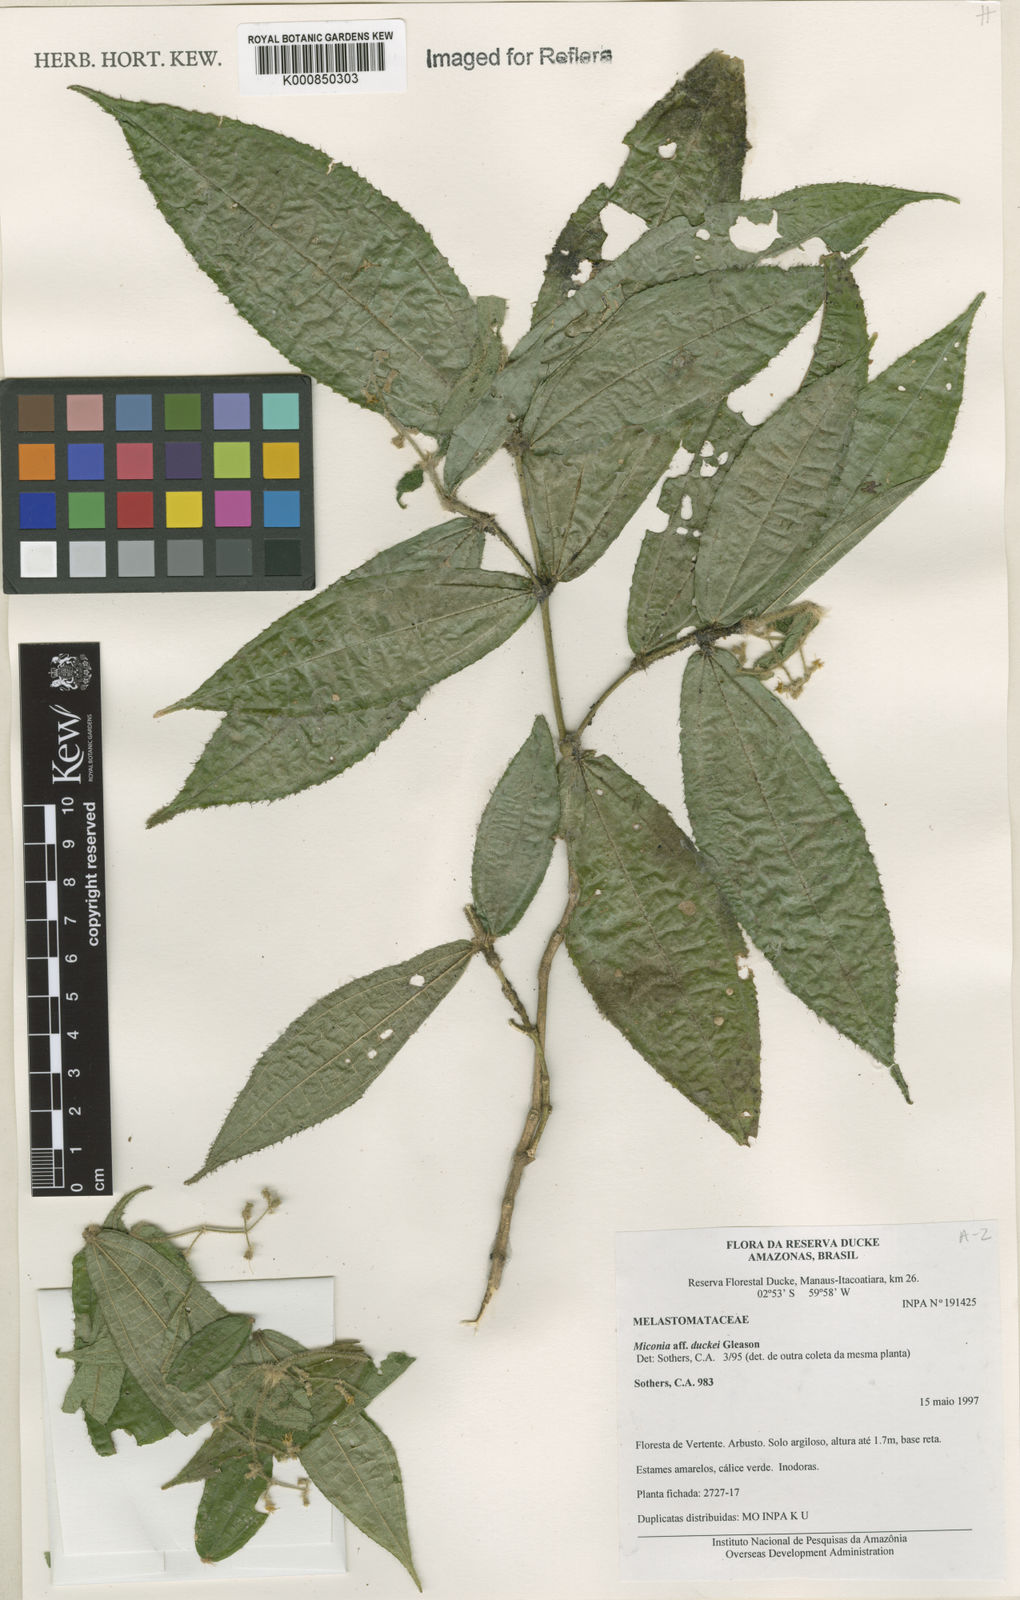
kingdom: Plantae
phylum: Tracheophyta
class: Magnoliopsida
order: Myrtales
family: Melastomataceae
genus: Miconia
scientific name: Miconia duckei
